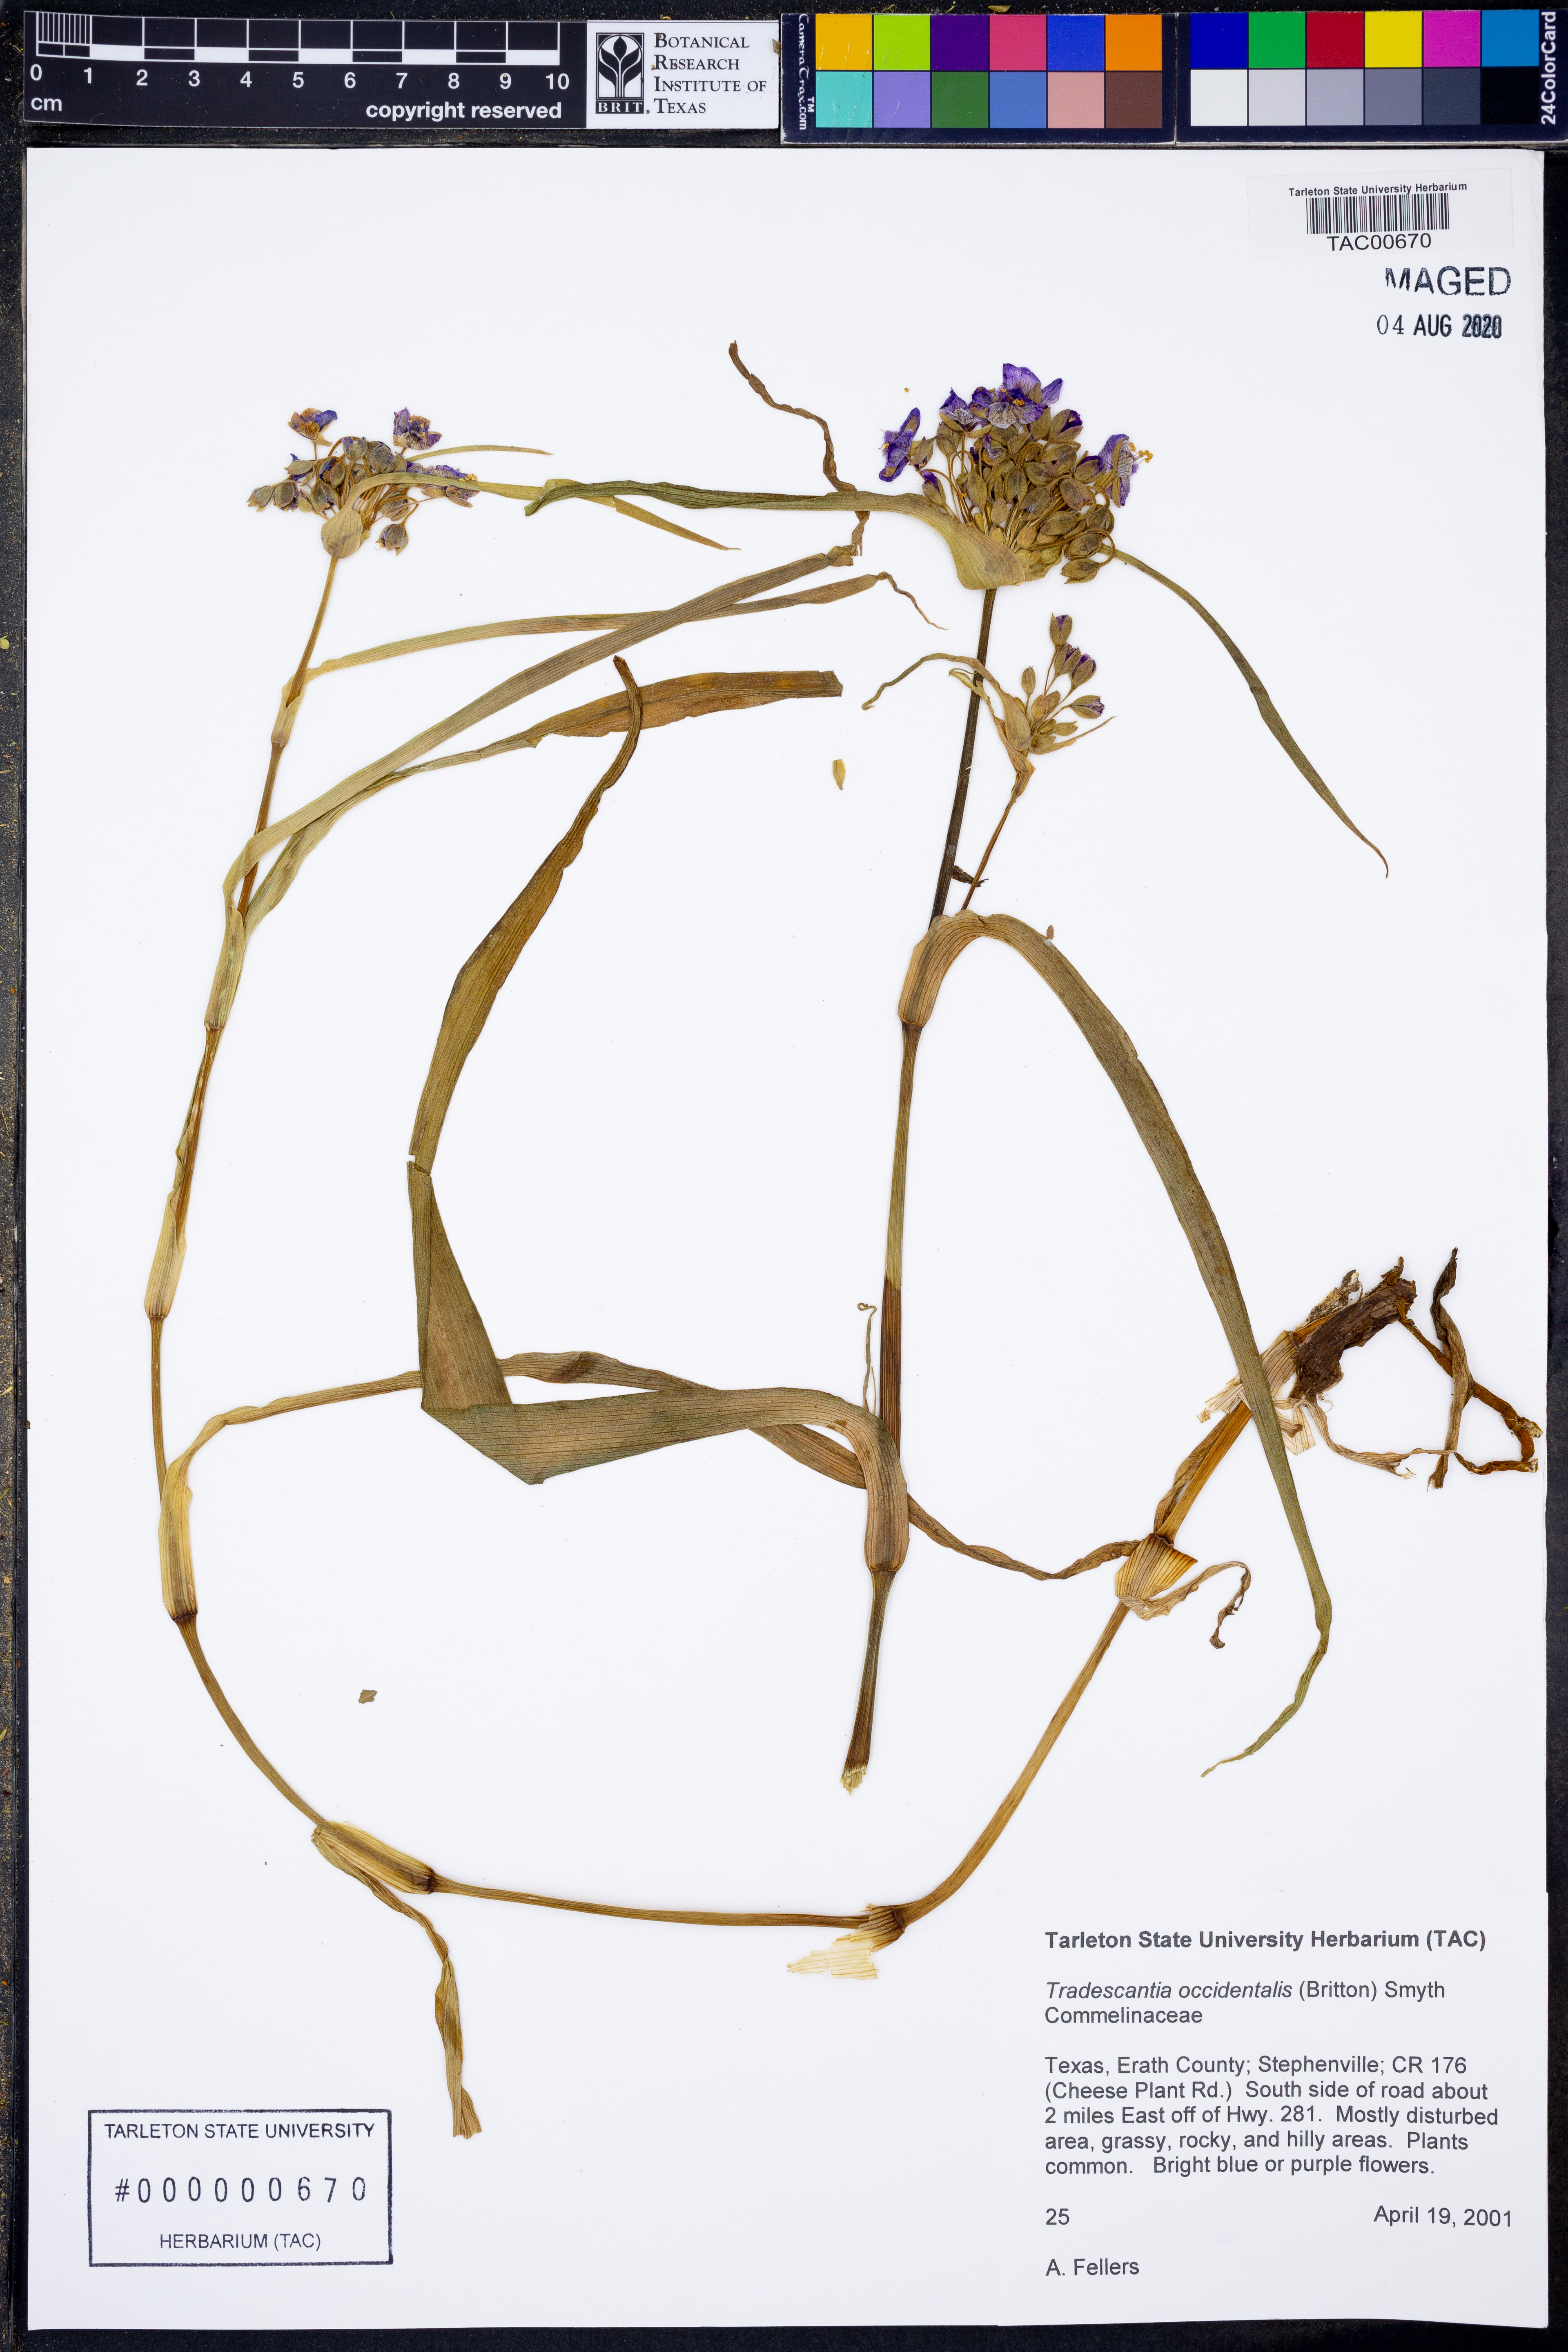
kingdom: Plantae
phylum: Tracheophyta
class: Liliopsida
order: Commelinales
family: Commelinaceae
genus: Tradescantia
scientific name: Tradescantia occidentalis
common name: Prairie spiderwort
